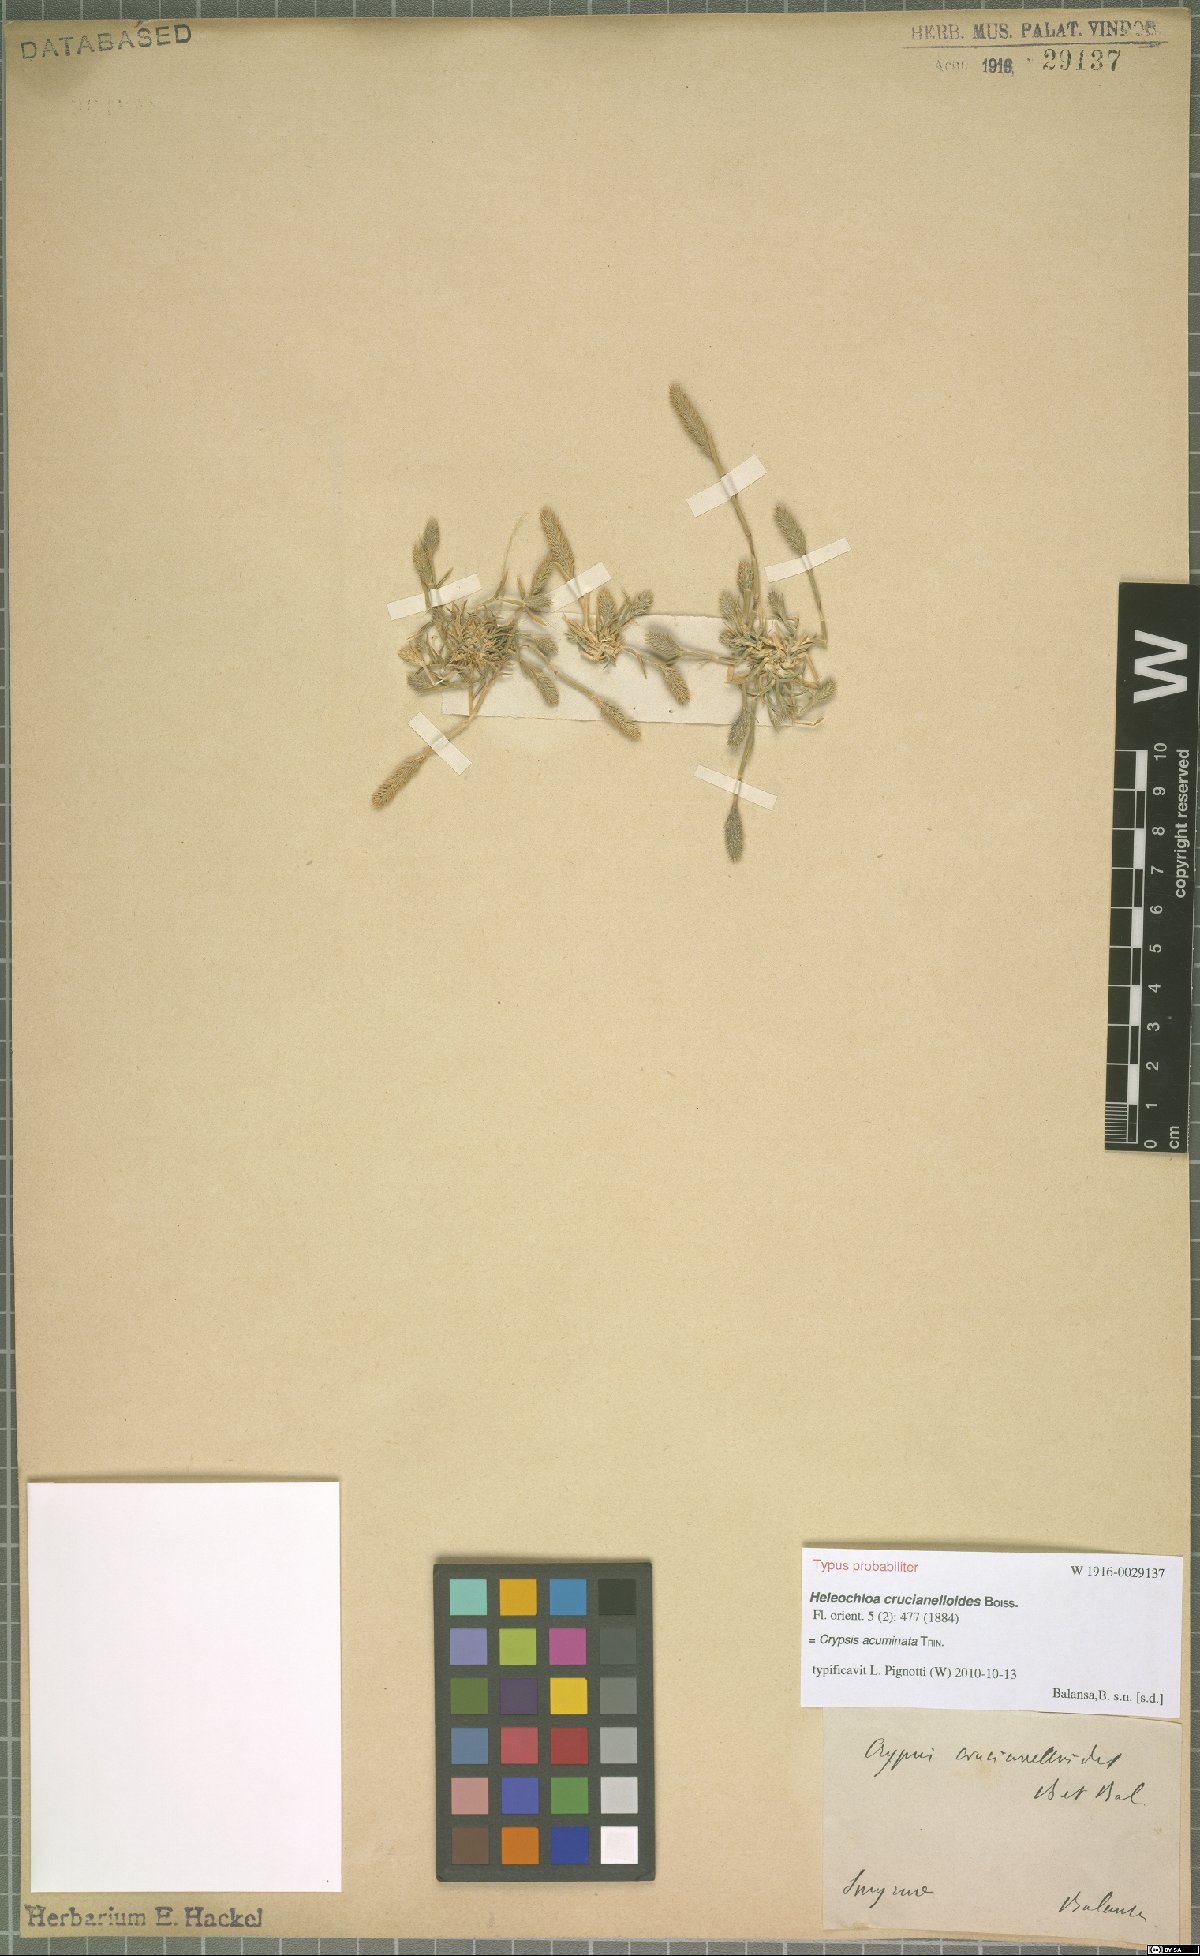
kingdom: Plantae
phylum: Tracheophyta
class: Liliopsida
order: Poales
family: Poaceae
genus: Sporobolus
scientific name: Sporobolus borszczowii
